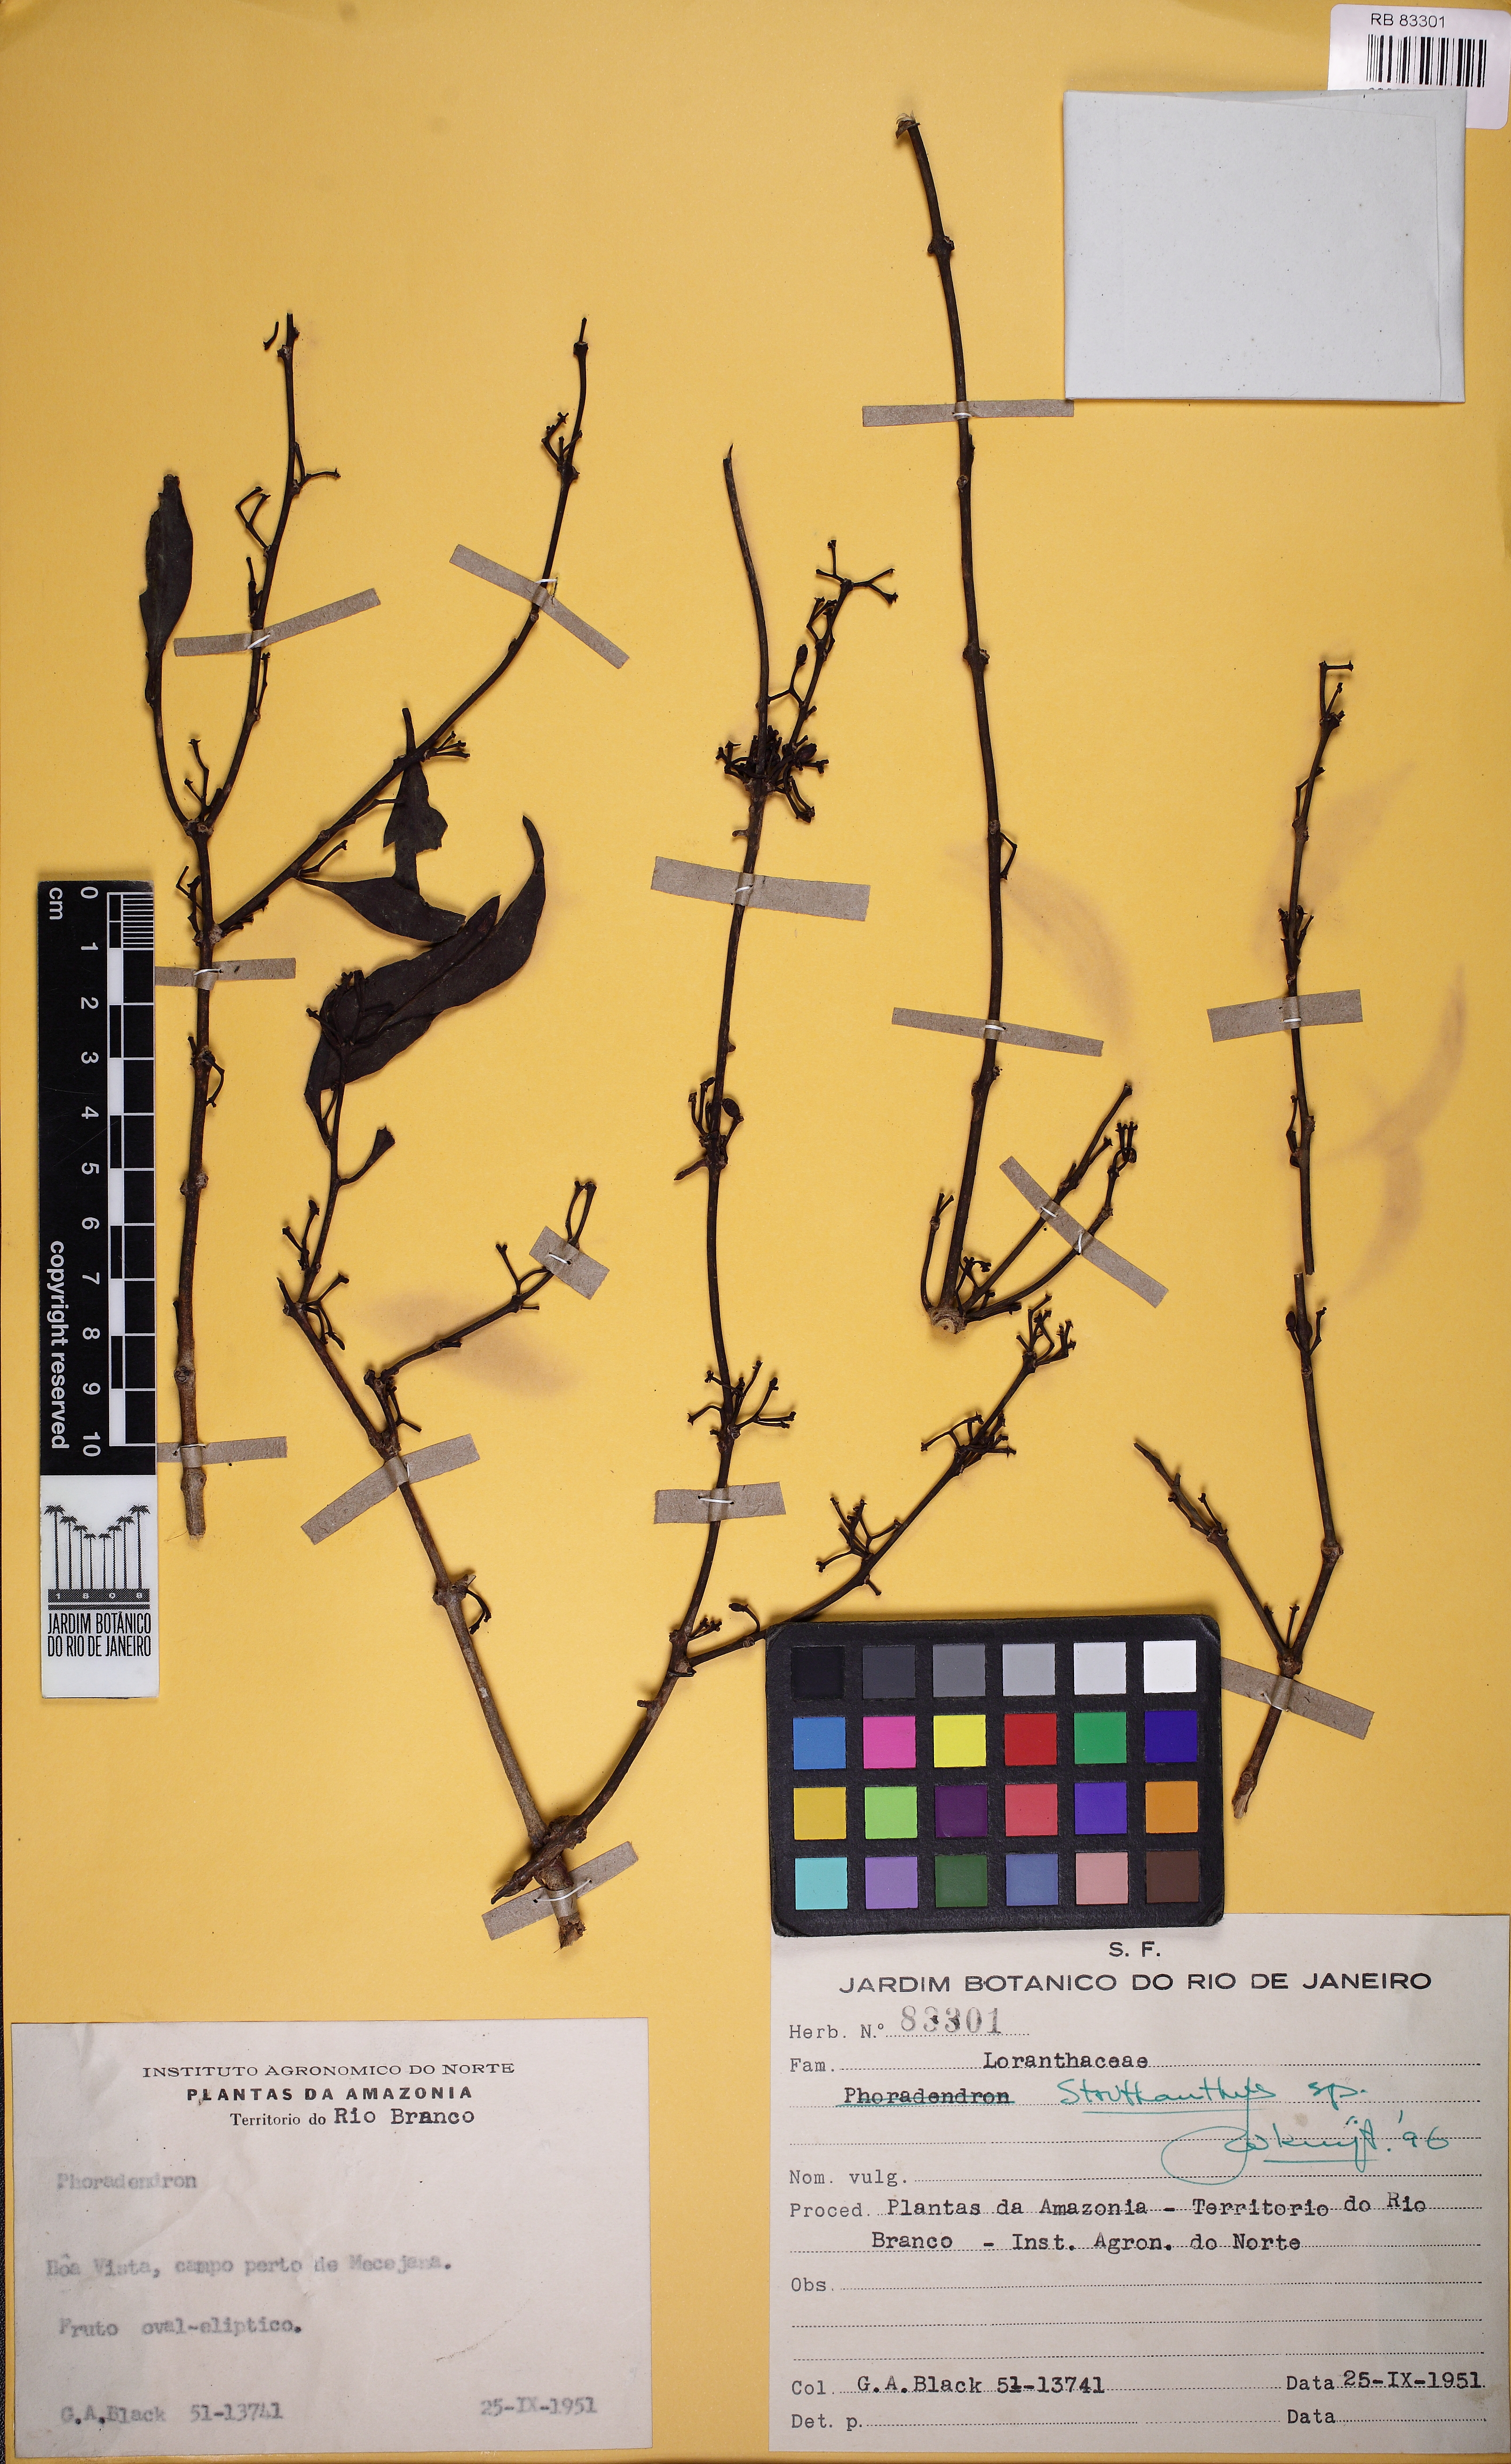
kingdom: Plantae
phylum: Tracheophyta
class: Magnoliopsida
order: Santalales
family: Loranthaceae
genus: Struthanthus
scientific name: Struthanthus
